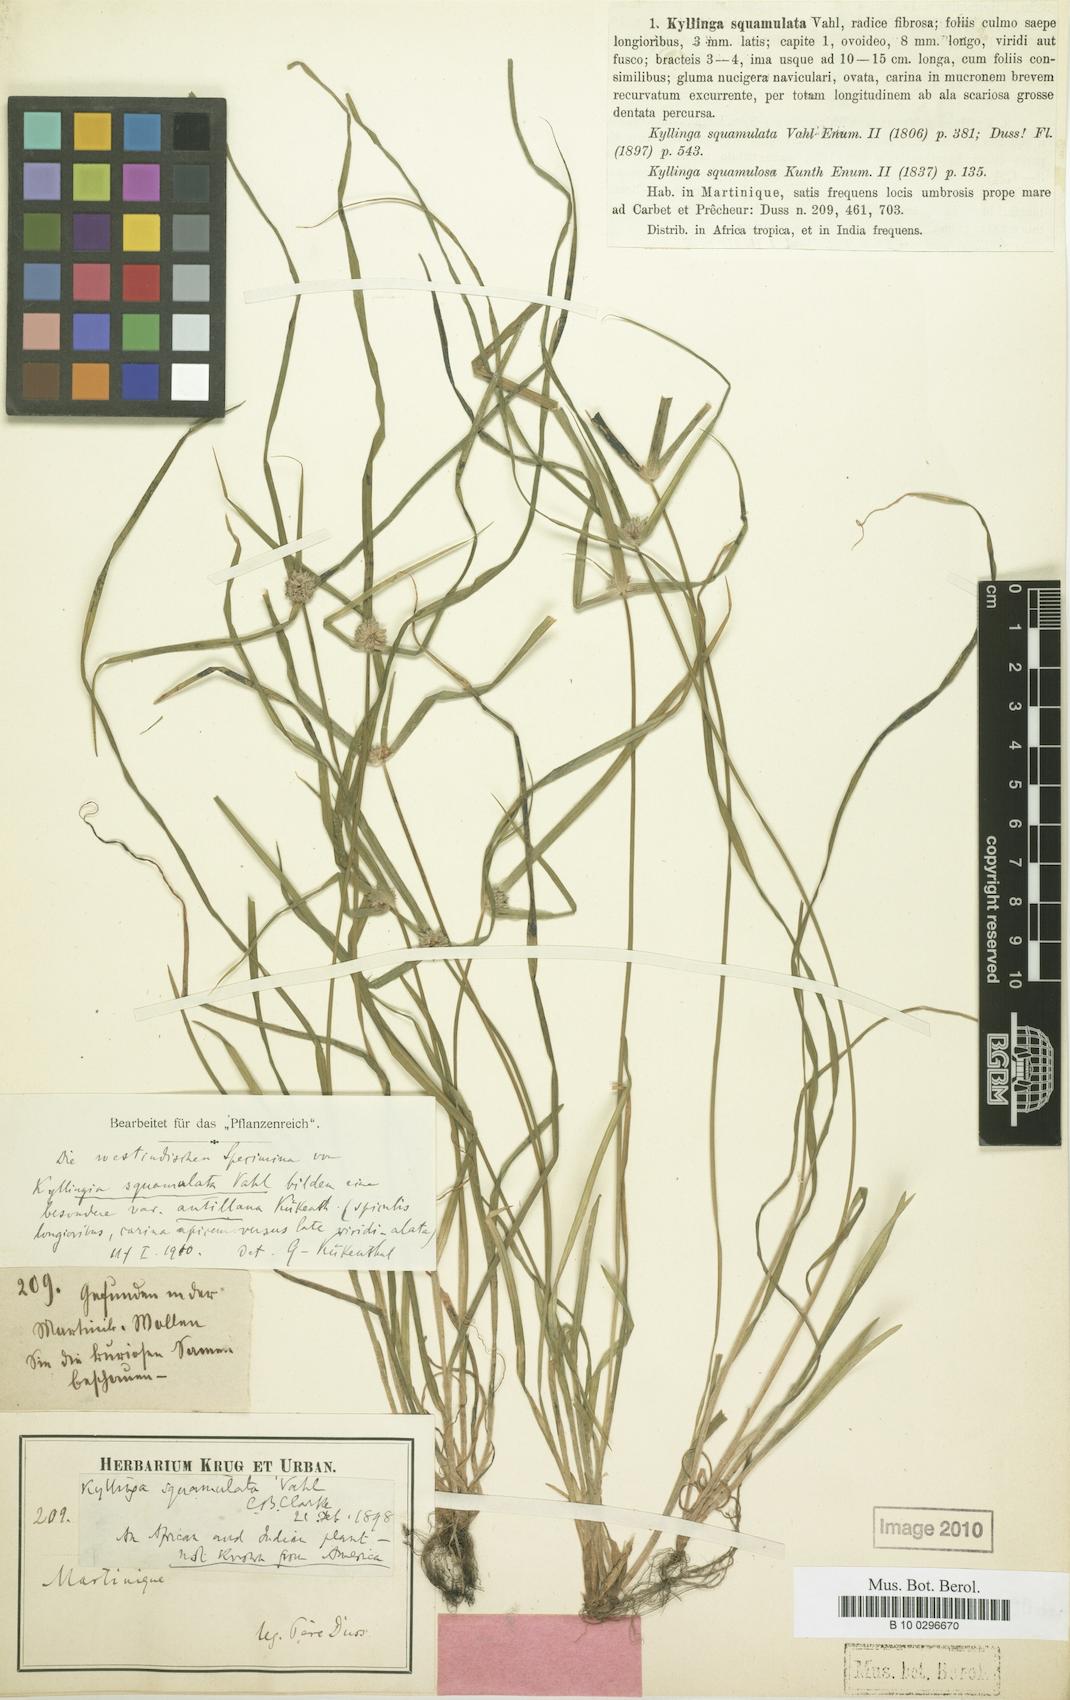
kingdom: Plantae
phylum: Tracheophyta
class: Liliopsida
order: Poales
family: Cyperaceae
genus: Cyperus
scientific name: Cyperus metzii
